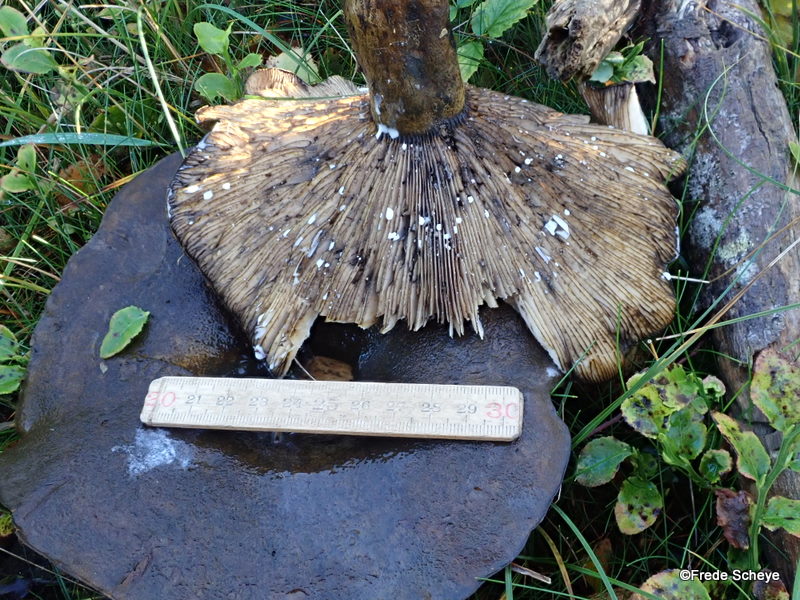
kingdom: Fungi
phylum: Basidiomycota
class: Agaricomycetes
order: Russulales
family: Russulaceae
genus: Lactarius
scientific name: Lactarius necator
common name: manddraber-mælkehat
